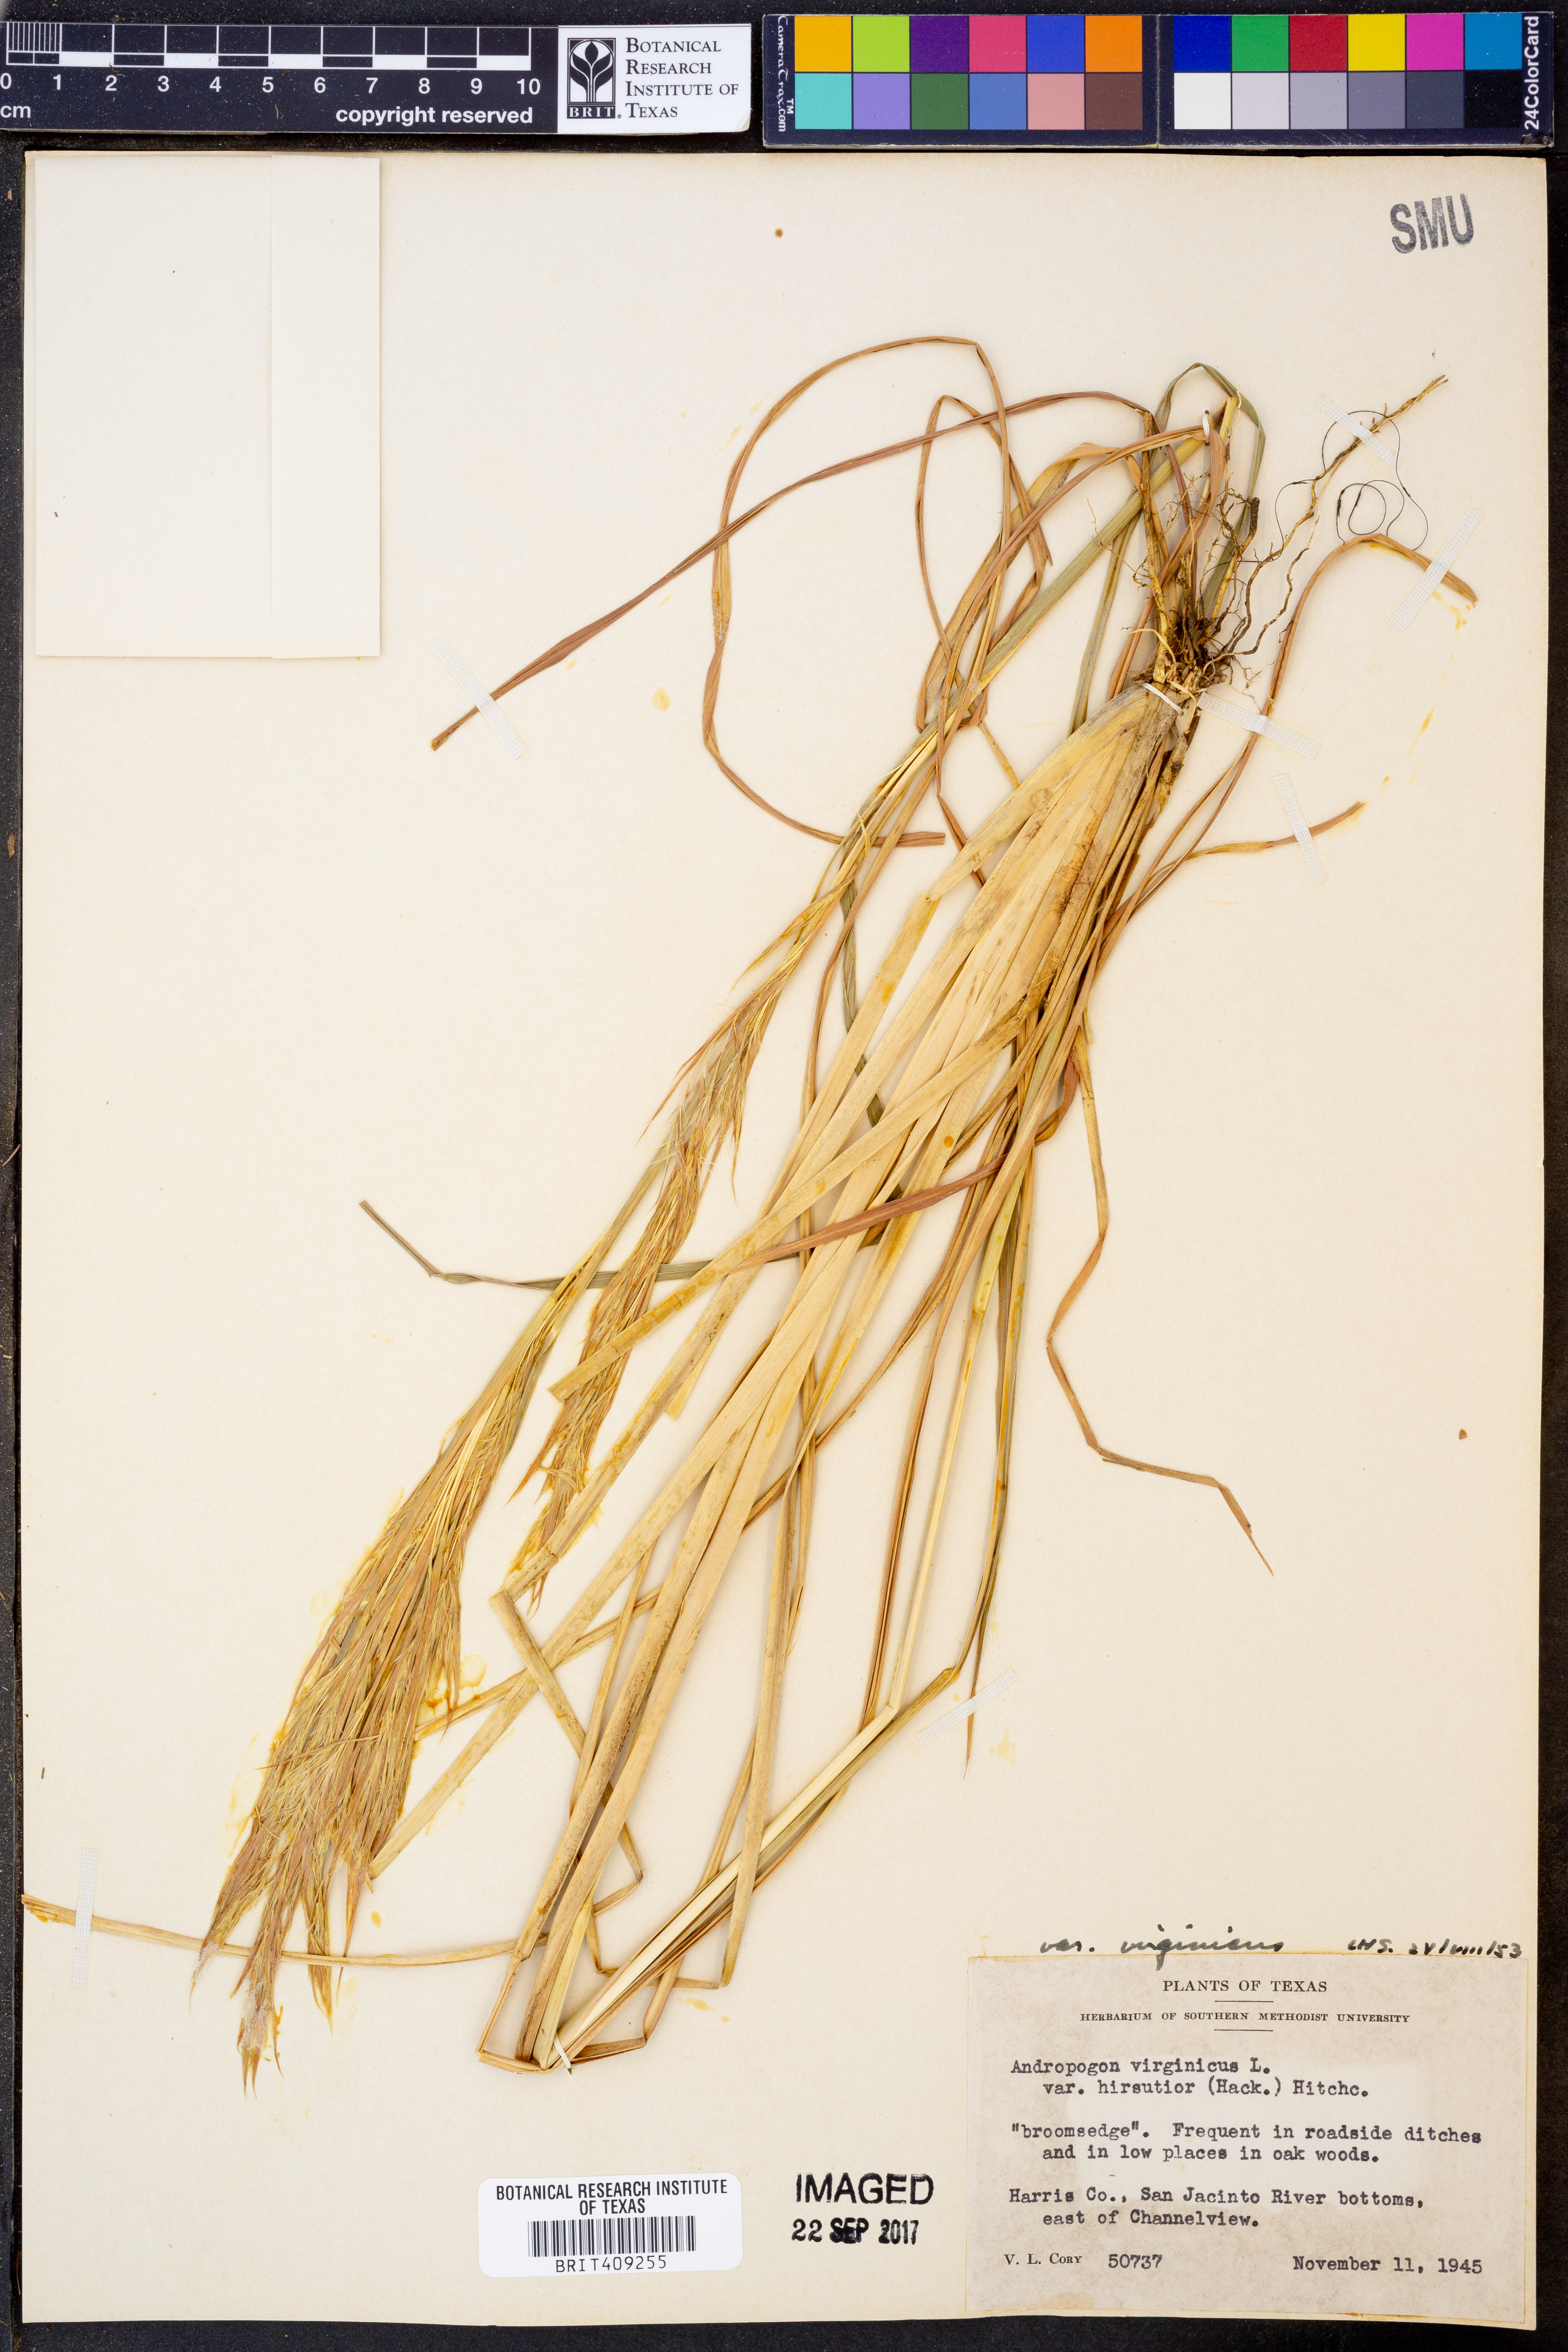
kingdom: Plantae
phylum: Tracheophyta
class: Liliopsida
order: Poales
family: Poaceae
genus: Andropogon
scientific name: Andropogon virginicus
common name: Broomsedge bluestem
